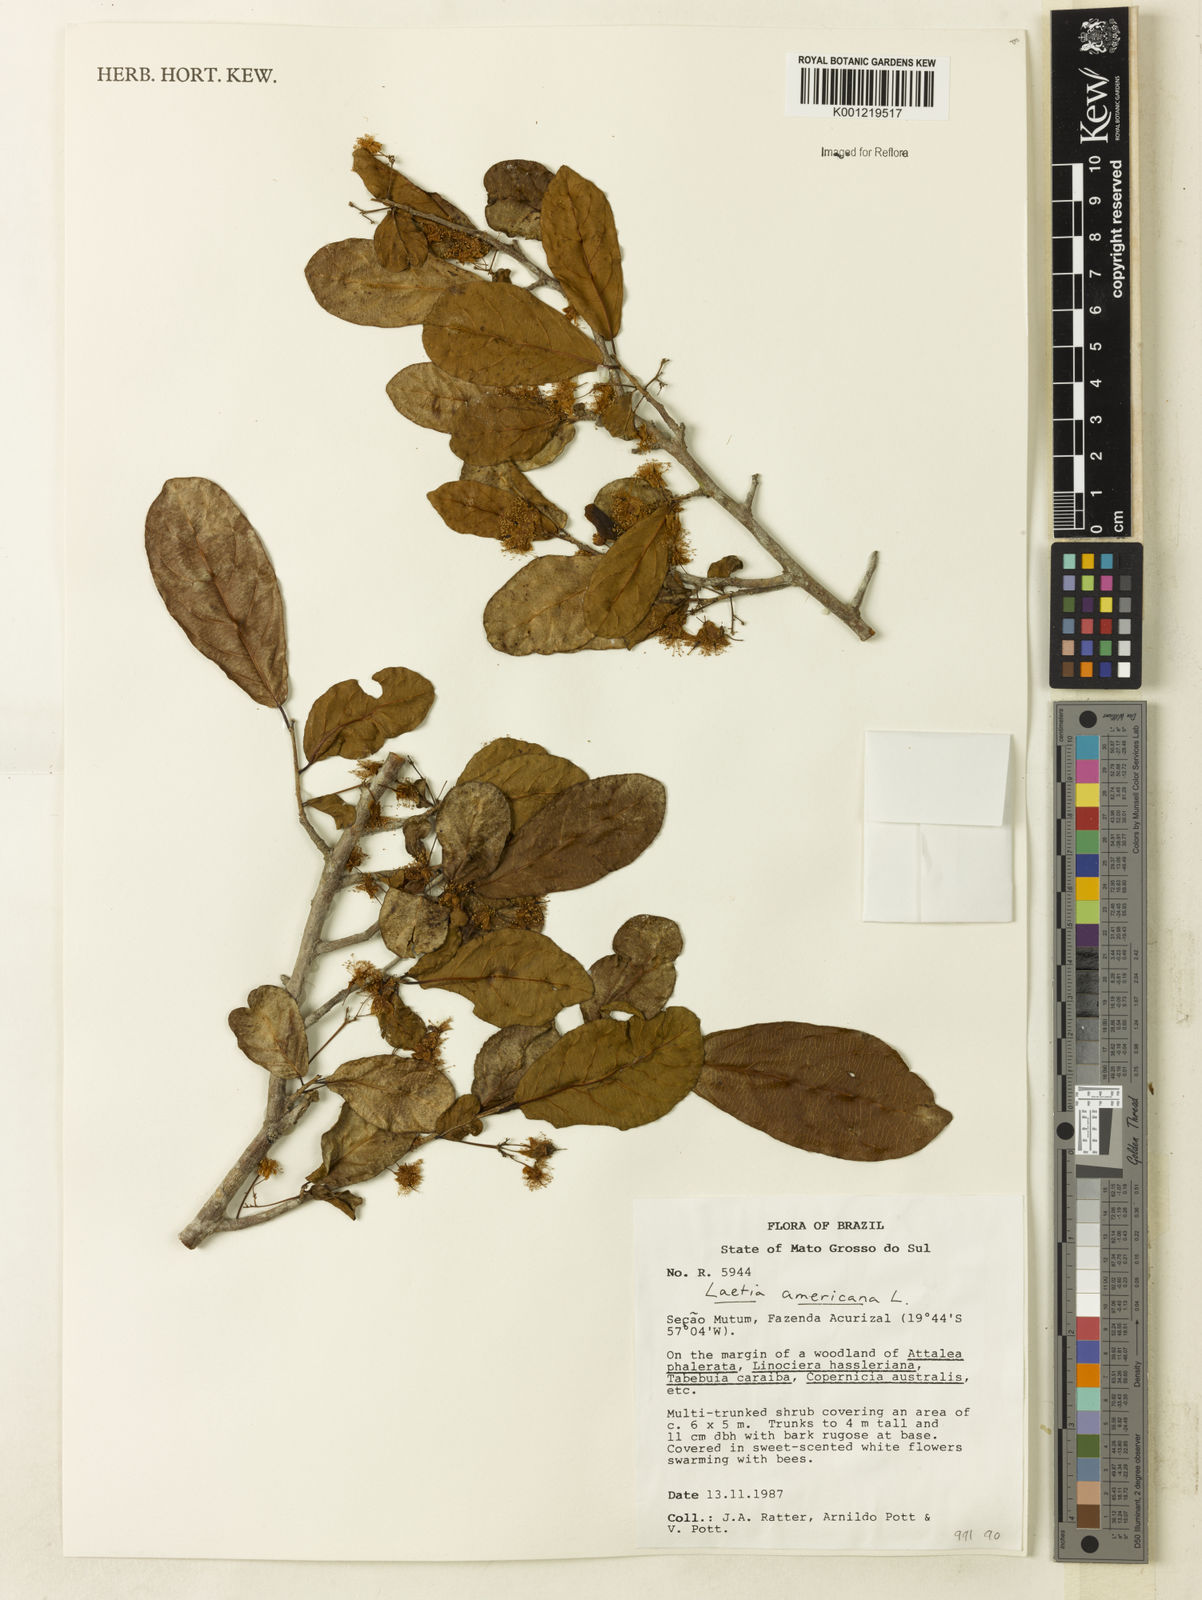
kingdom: Plantae
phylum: Tracheophyta
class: Magnoliopsida
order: Malpighiales
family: Salicaceae
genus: Casearia
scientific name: Casearia americana
